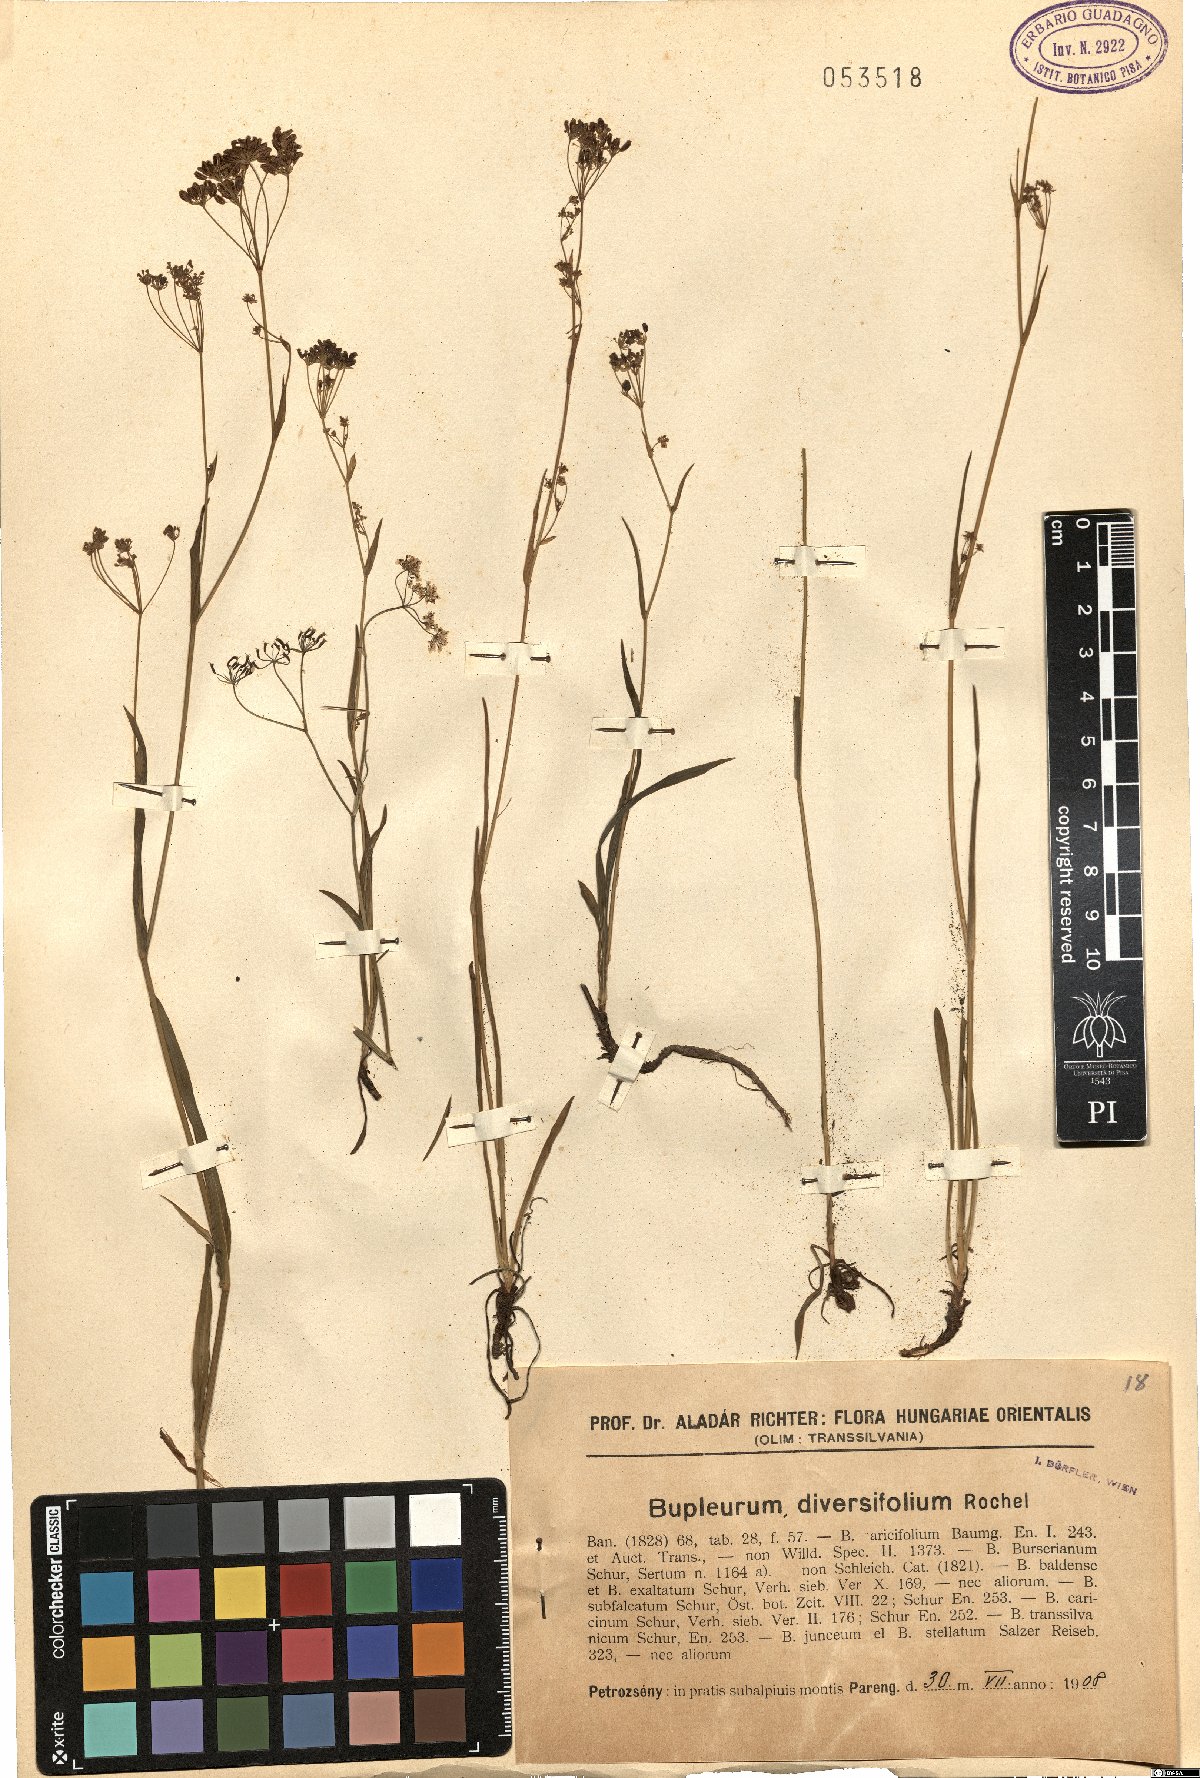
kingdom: Plantae
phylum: Tracheophyta
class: Magnoliopsida
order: Apiales
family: Apiaceae
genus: Bupleurum
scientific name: Bupleurum exaltatum
